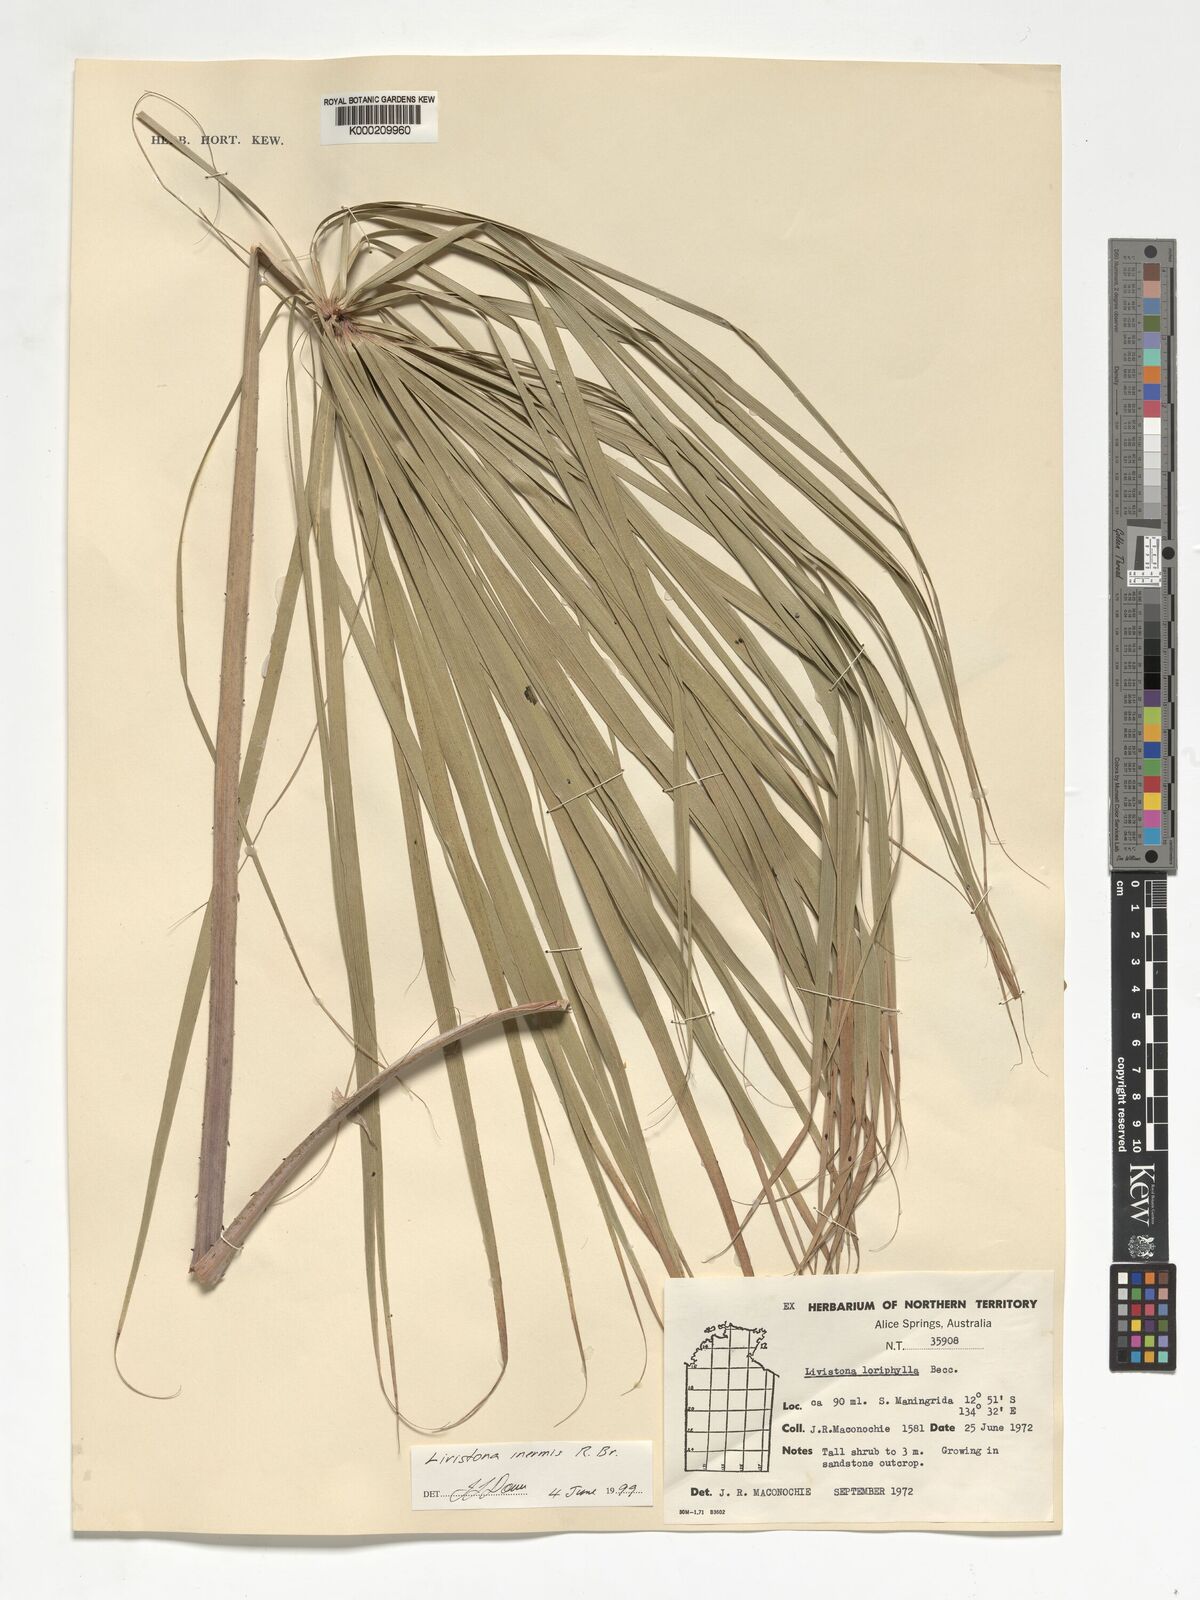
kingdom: Plantae
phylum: Tracheophyta
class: Liliopsida
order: Arecales
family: Arecaceae
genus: Livistona
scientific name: Livistona inermis
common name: Wispy fan palm
